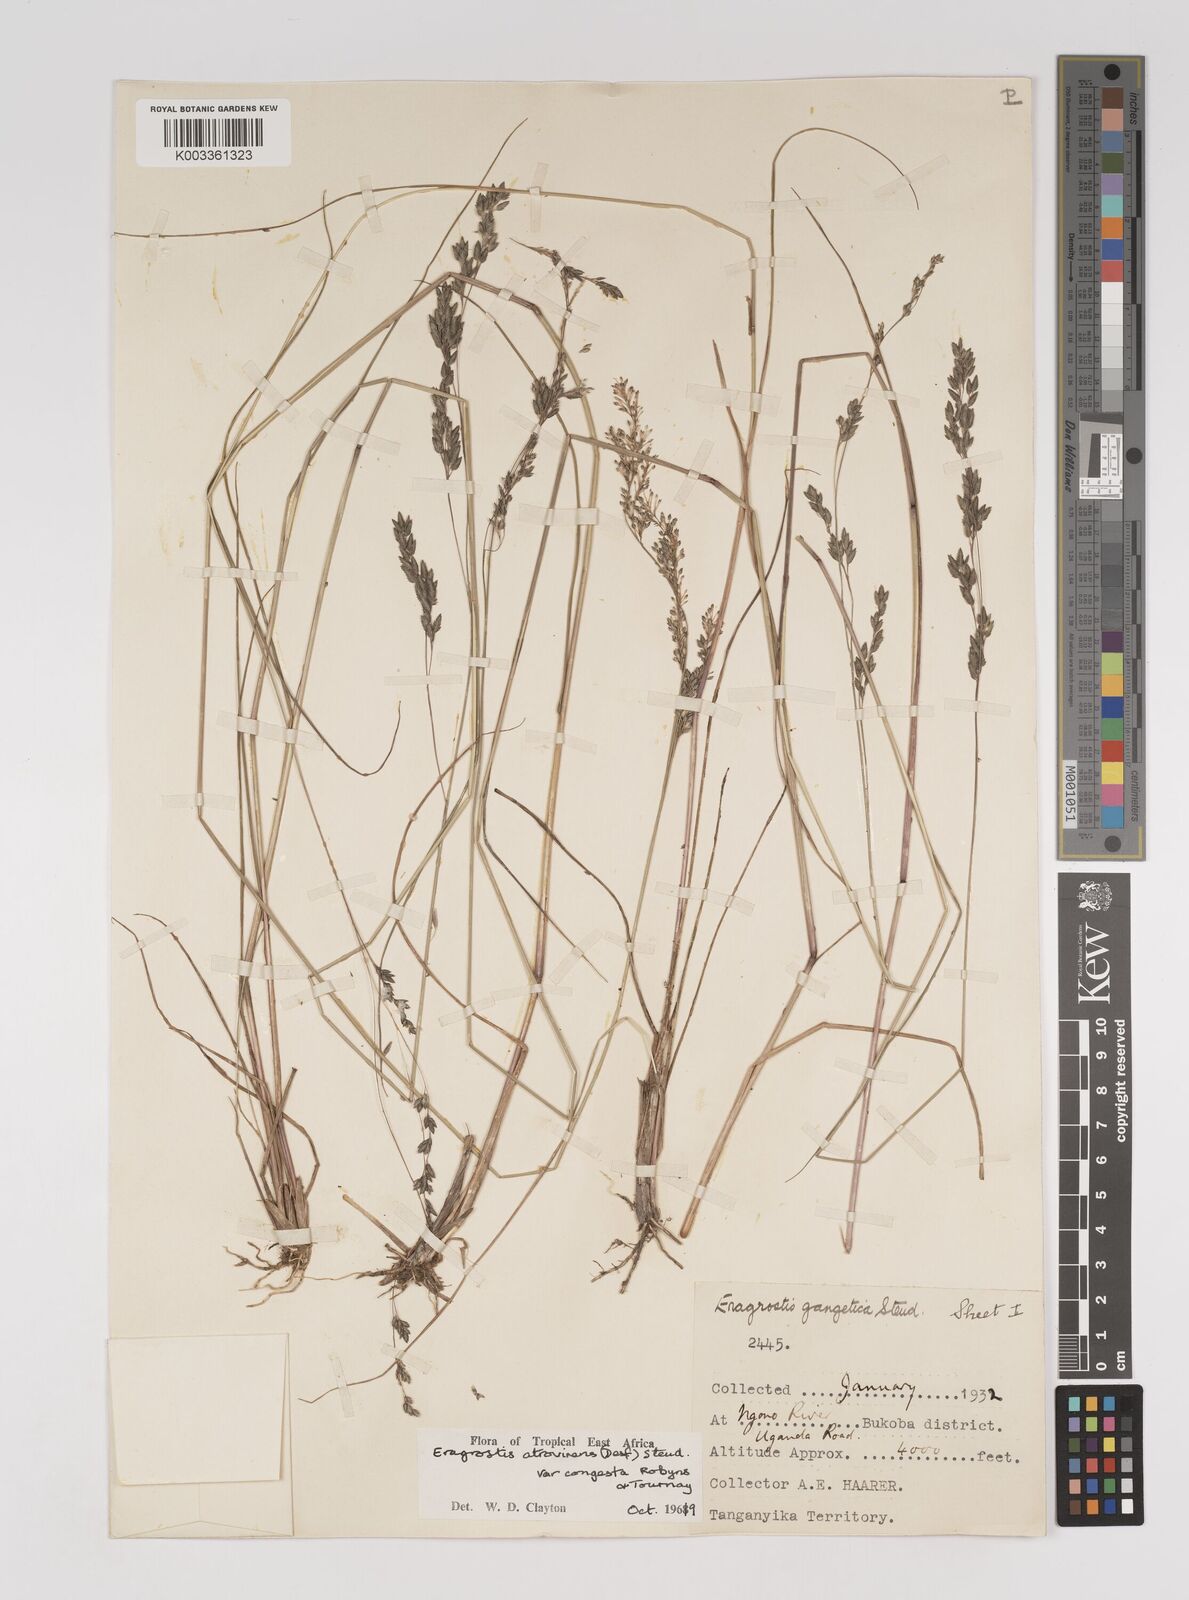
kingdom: Plantae
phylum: Tracheophyta
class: Liliopsida
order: Poales
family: Poaceae
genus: Eragrostis
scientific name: Eragrostis botryodes
